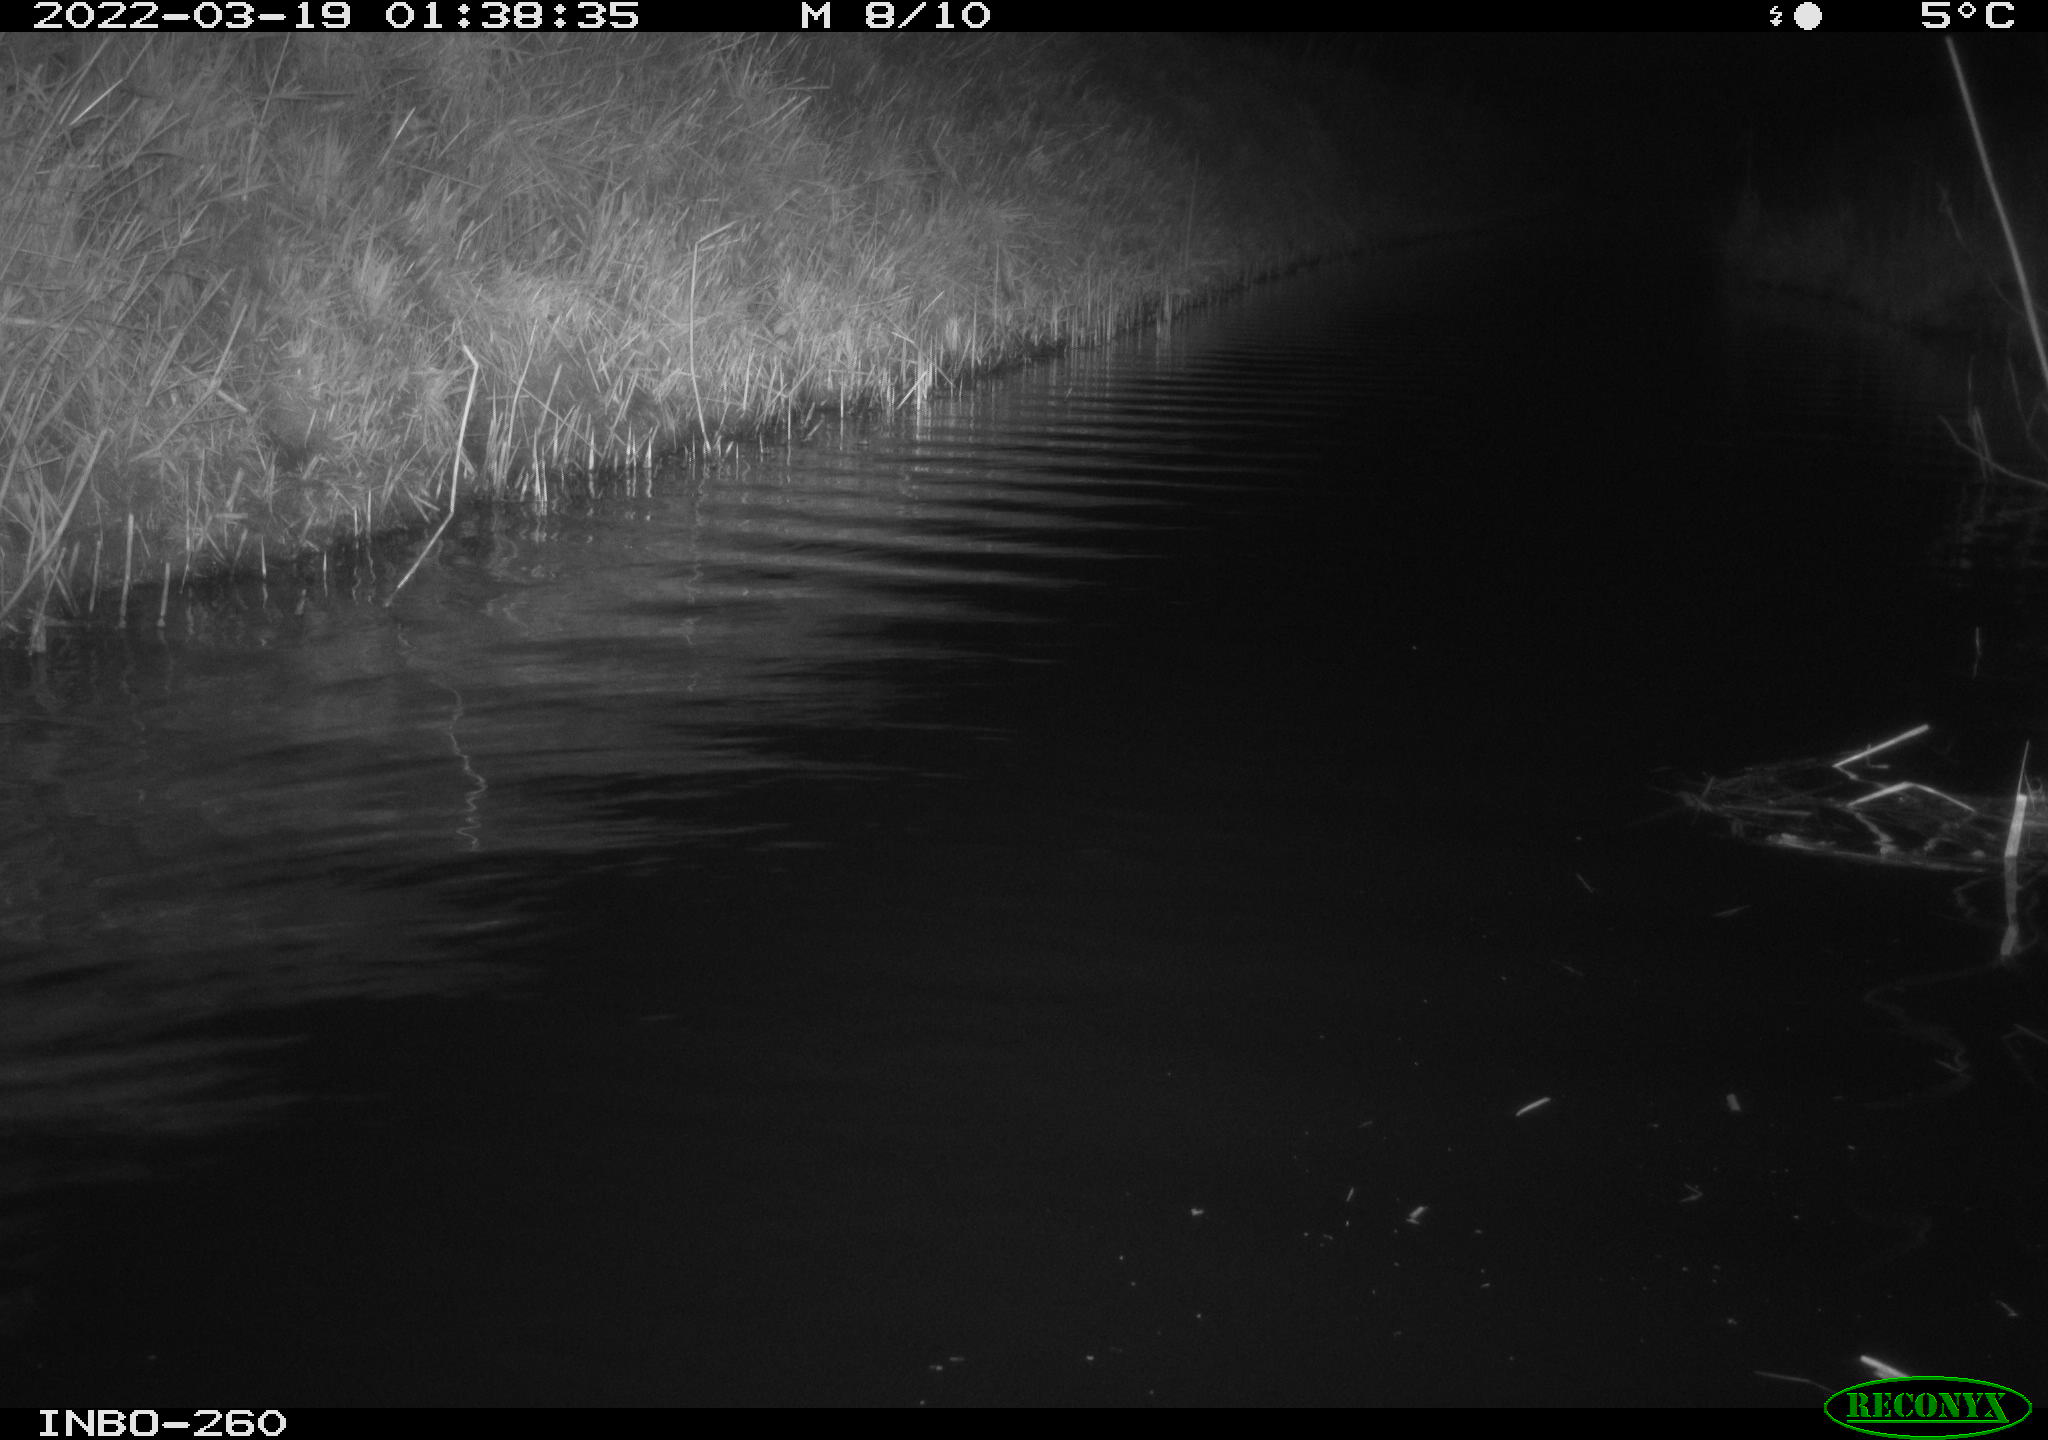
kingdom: Animalia
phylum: Chordata
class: Mammalia
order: Rodentia
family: Cricetidae
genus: Ondatra
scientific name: Ondatra zibethicus
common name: Muskrat
